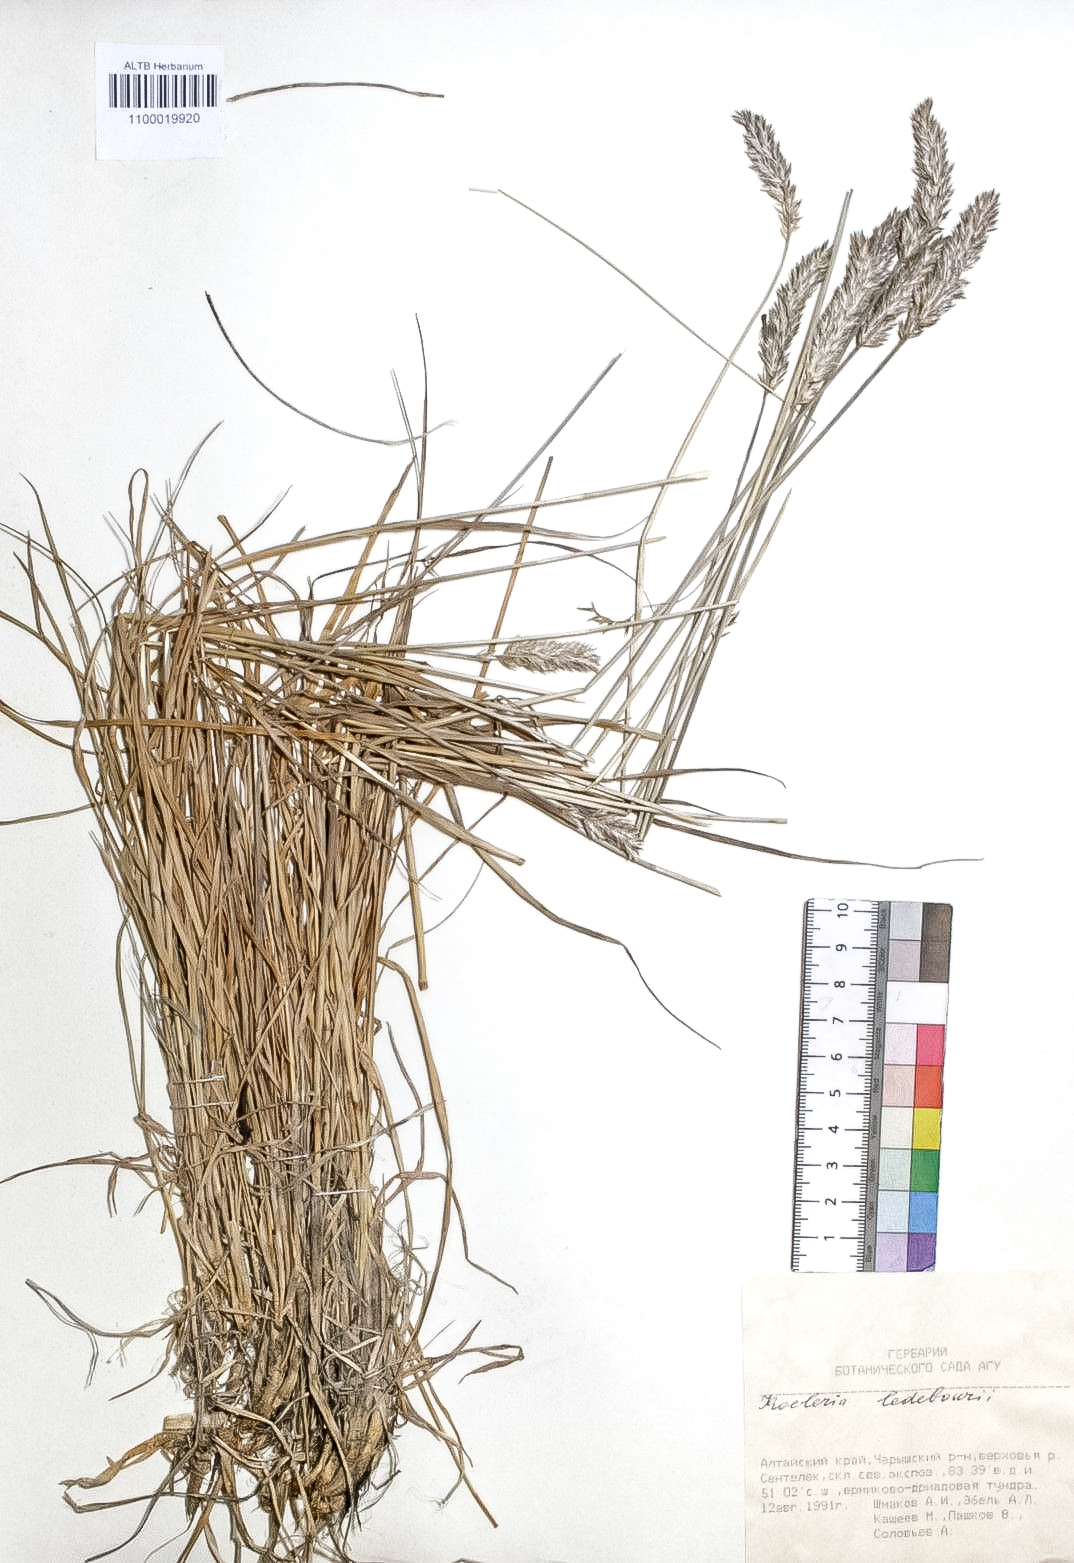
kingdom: Plantae
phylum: Tracheophyta
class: Liliopsida
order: Poales
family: Poaceae
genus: Koeleria
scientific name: Koeleria asiatica
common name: Eurasian junegrass
